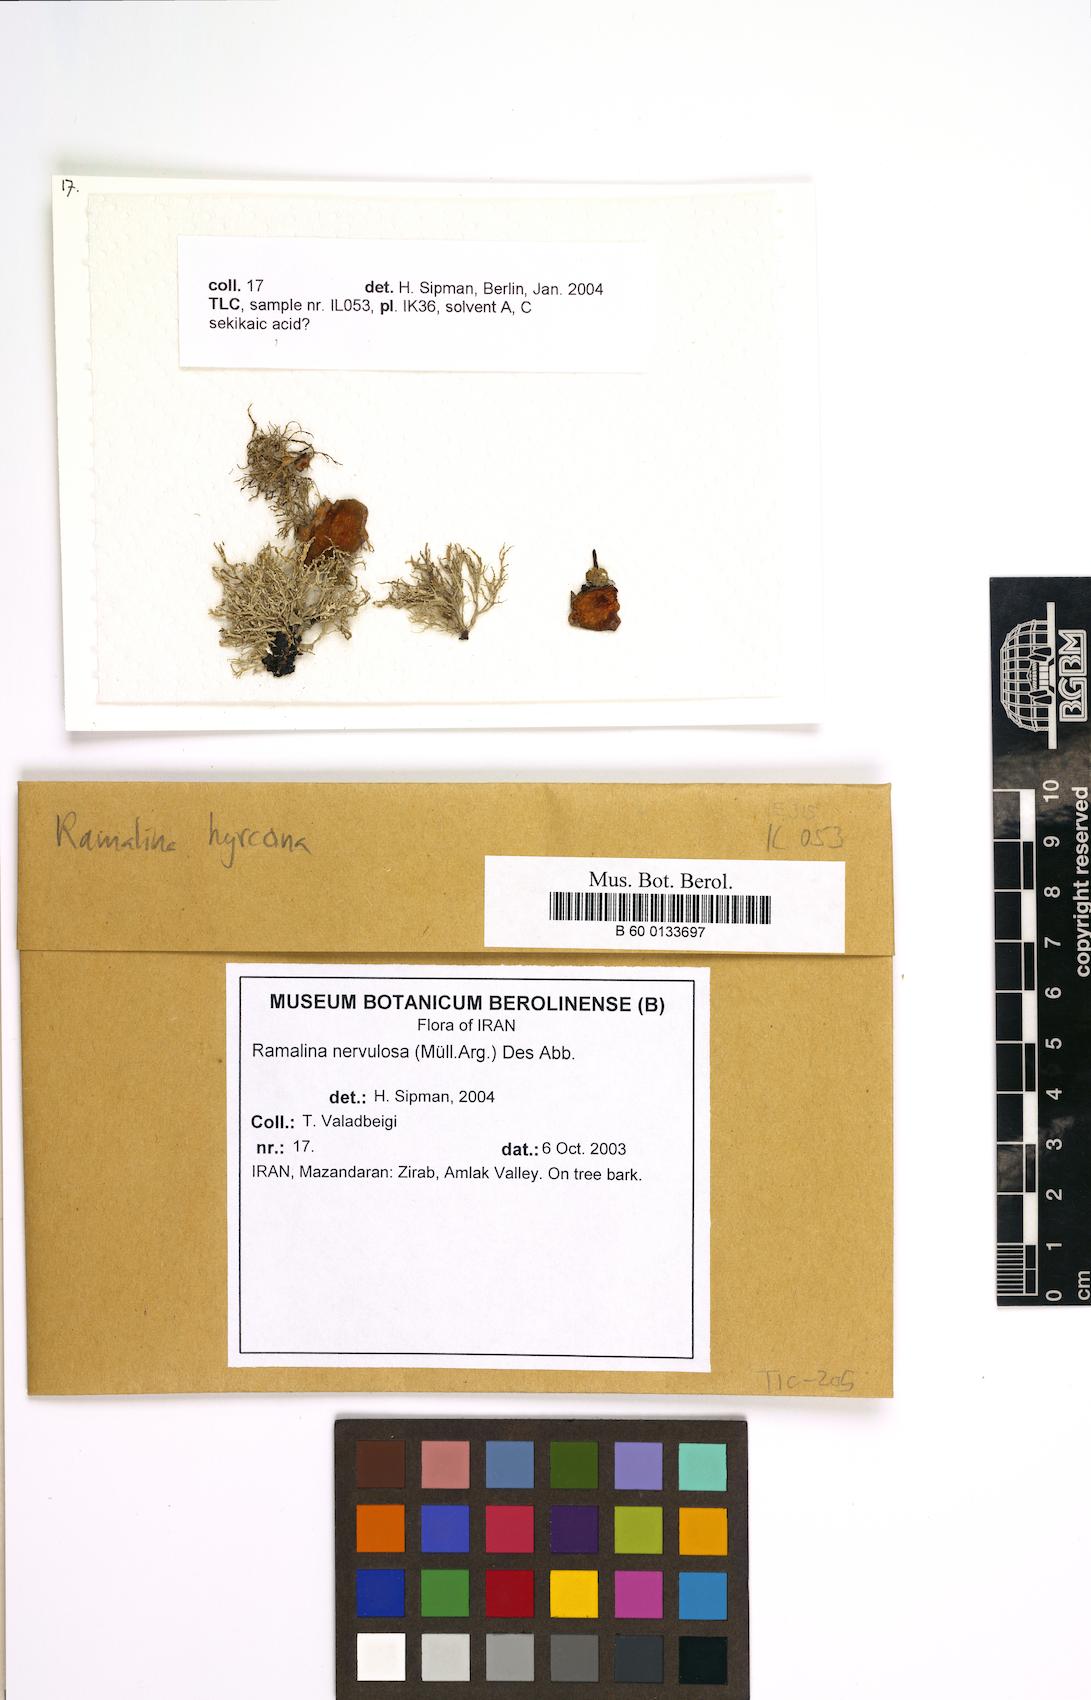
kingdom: Fungi
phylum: Ascomycota
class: Lecanoromycetes
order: Lecanorales
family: Ramalinaceae
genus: Ramalina
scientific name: Ramalina nervulosa
